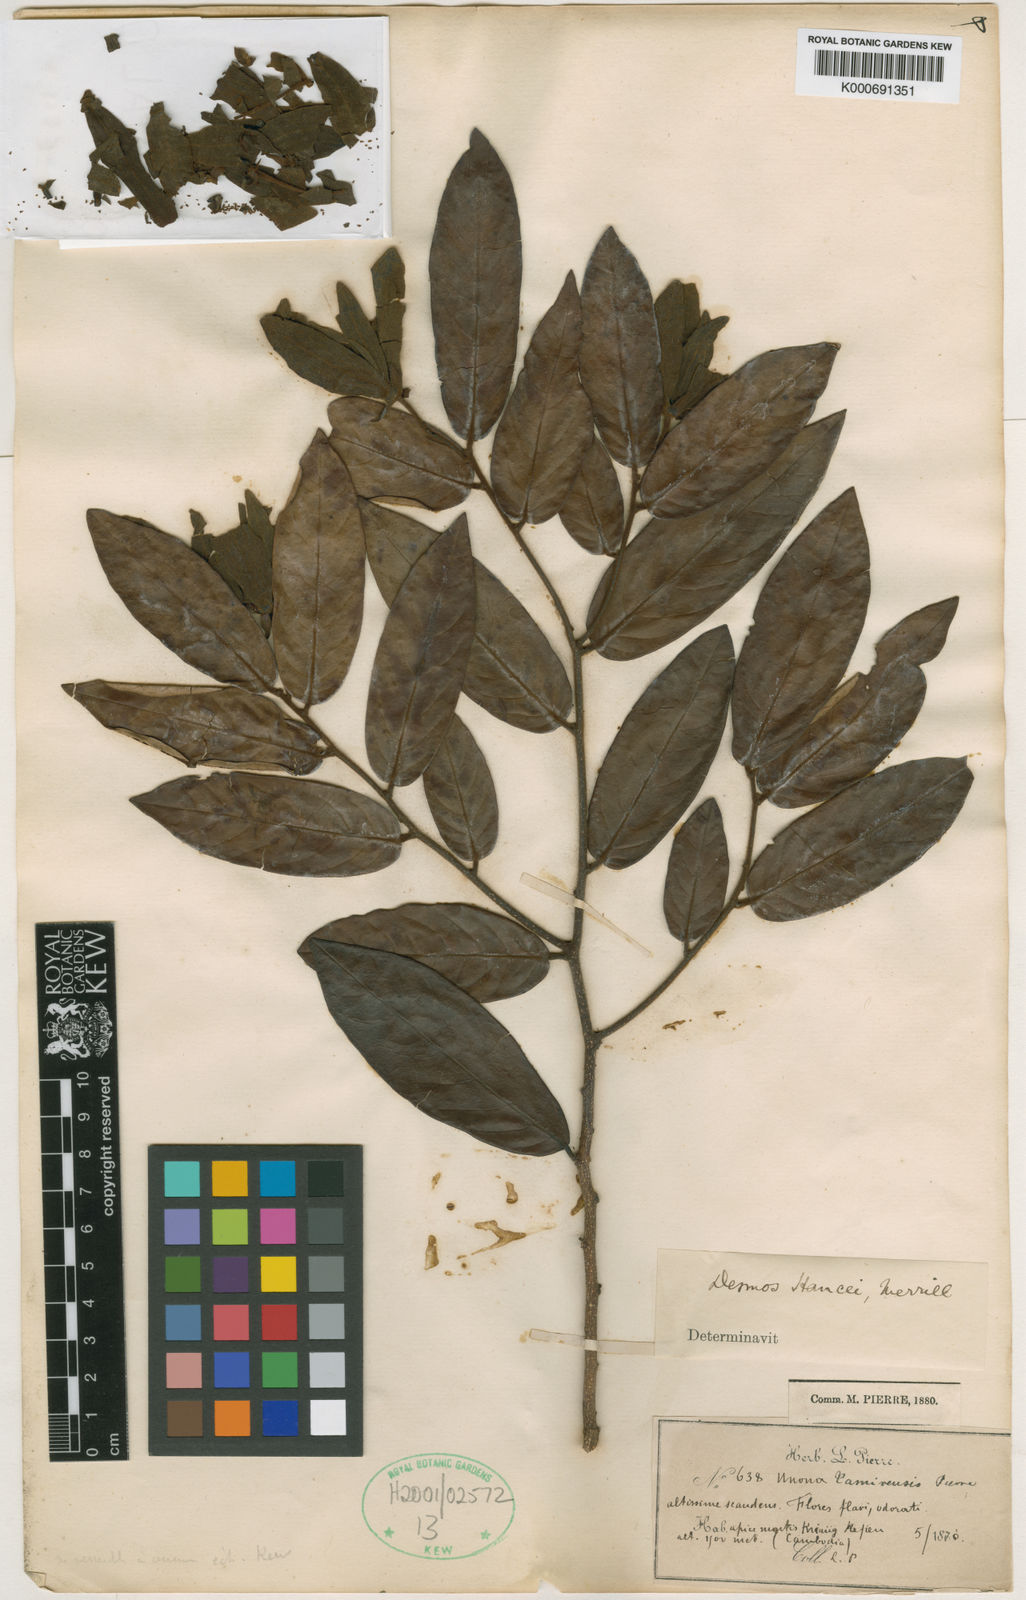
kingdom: Plantae
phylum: Tracheophyta
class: Magnoliopsida
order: Magnoliales
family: Annonaceae
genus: Desmos
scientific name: Desmos cochinchinensis
